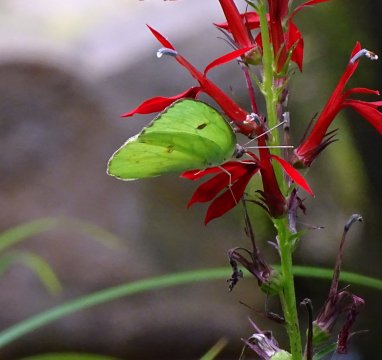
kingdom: Animalia
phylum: Arthropoda
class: Insecta
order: Lepidoptera
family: Pieridae
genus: Phoebis
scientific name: Phoebis sennae
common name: Cloudless Sulphur
